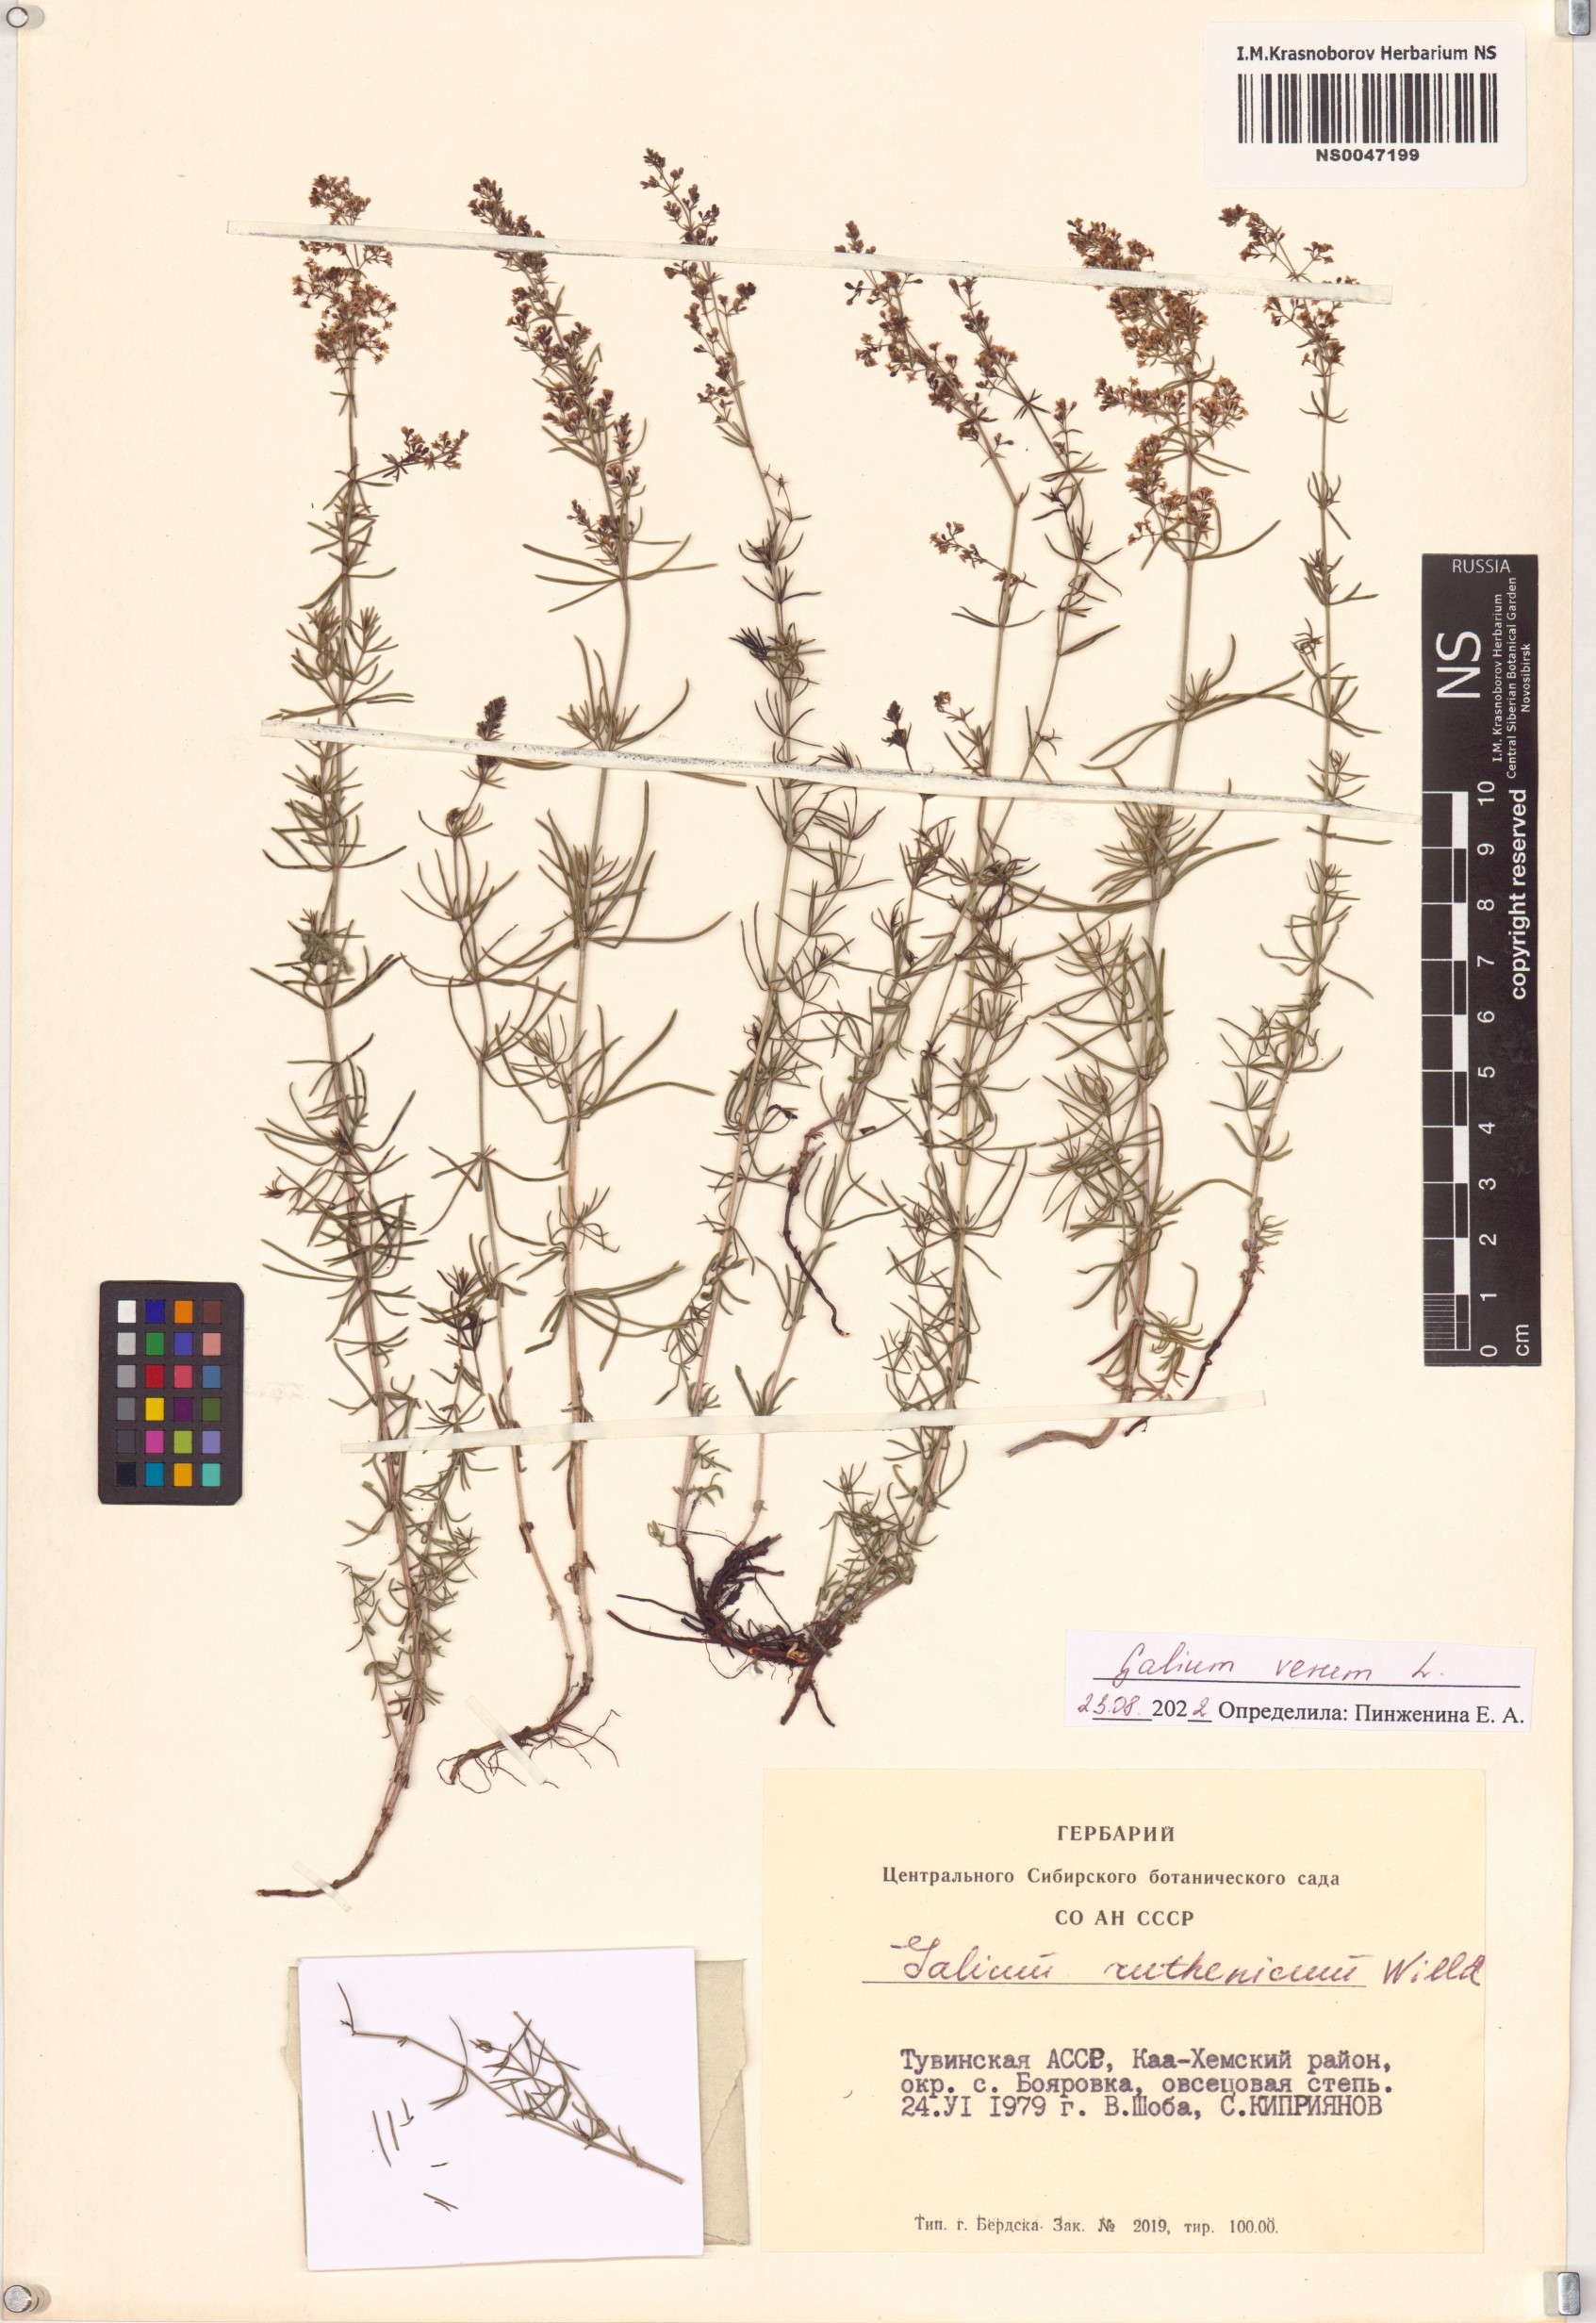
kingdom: Plantae
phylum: Tracheophyta
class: Magnoliopsida
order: Gentianales
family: Rubiaceae
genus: Galium
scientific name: Galium verum
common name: Lady's bedstraw
